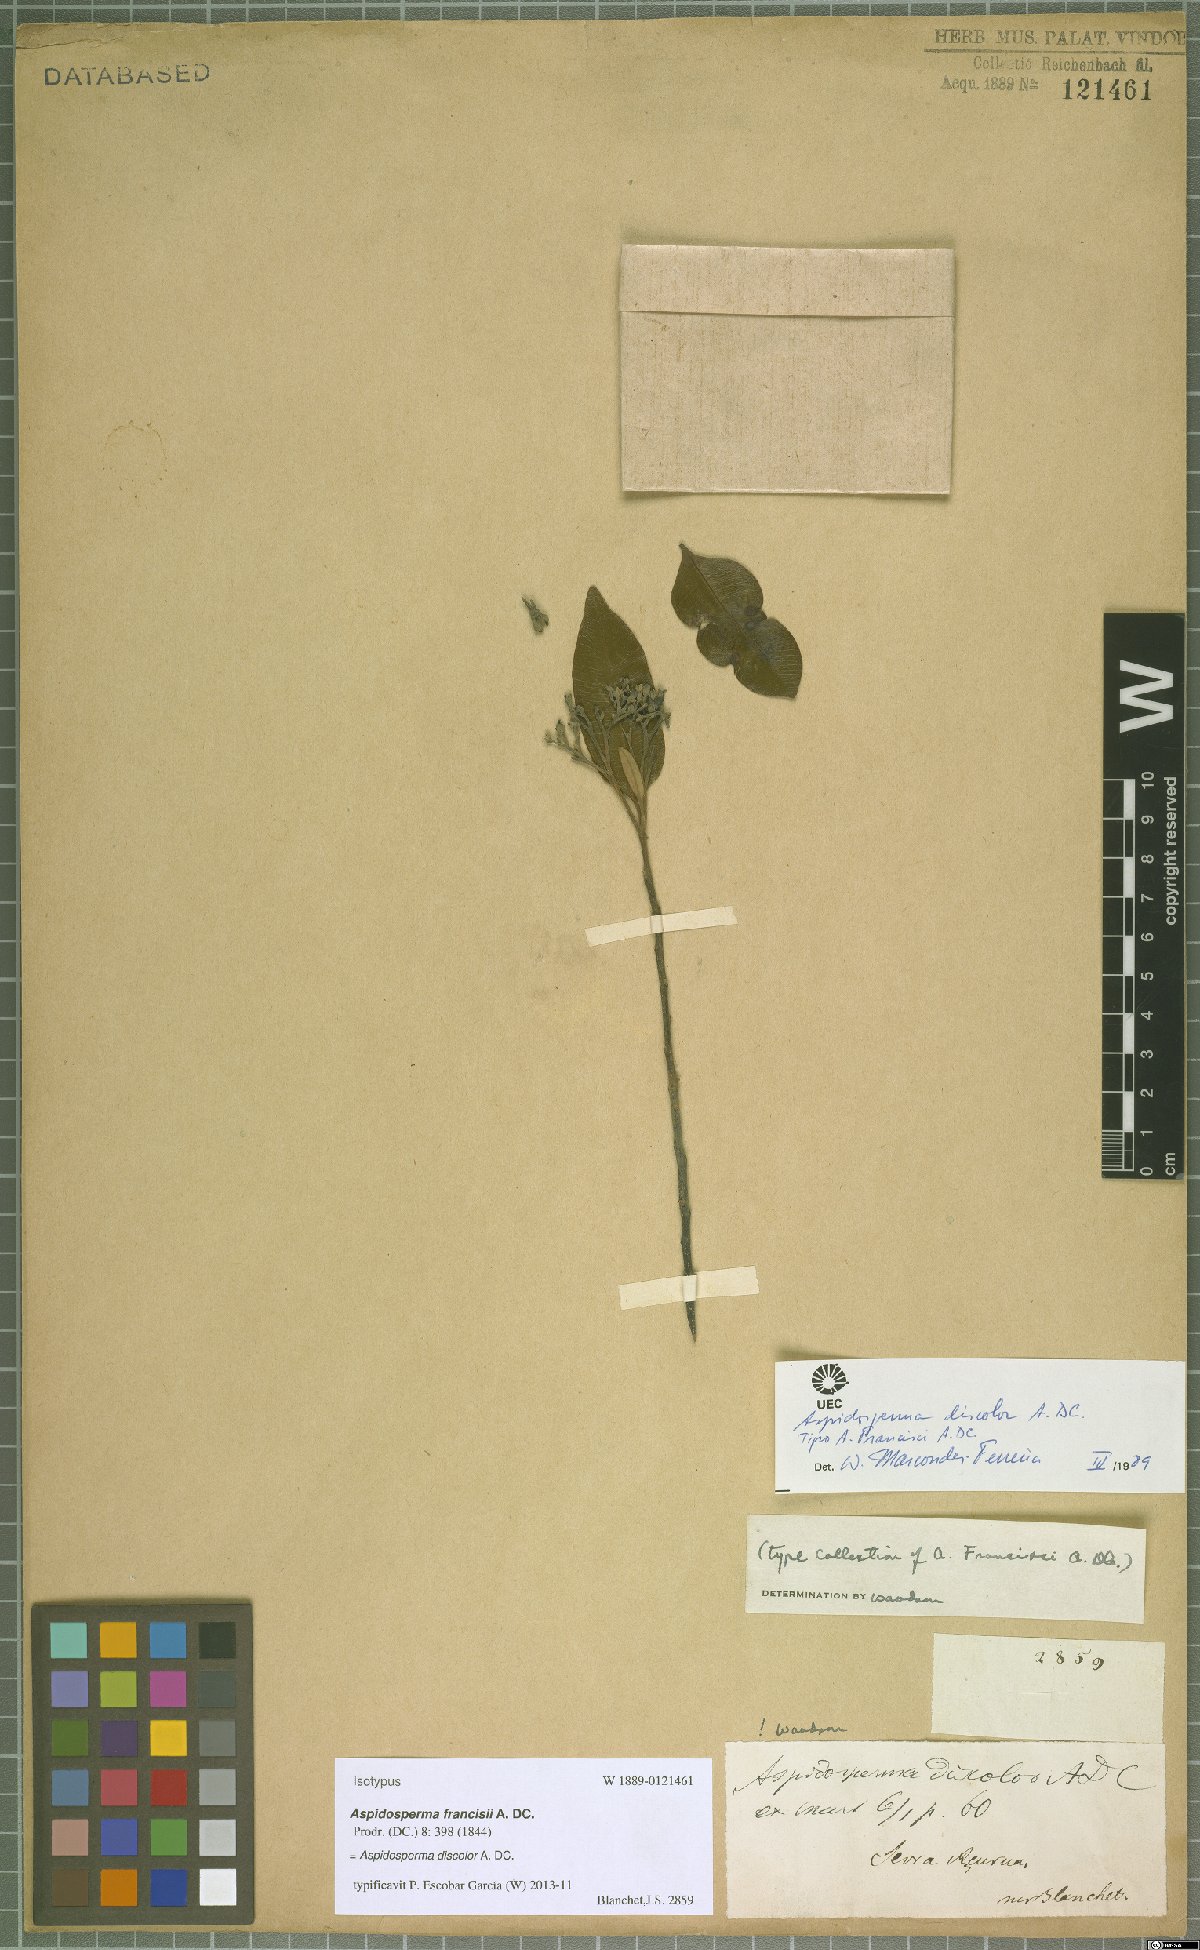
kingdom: Plantae
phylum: Tracheophyta
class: Magnoliopsida
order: Gentianales
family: Apocynaceae
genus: Aspidosperma
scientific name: Aspidosperma discolor
